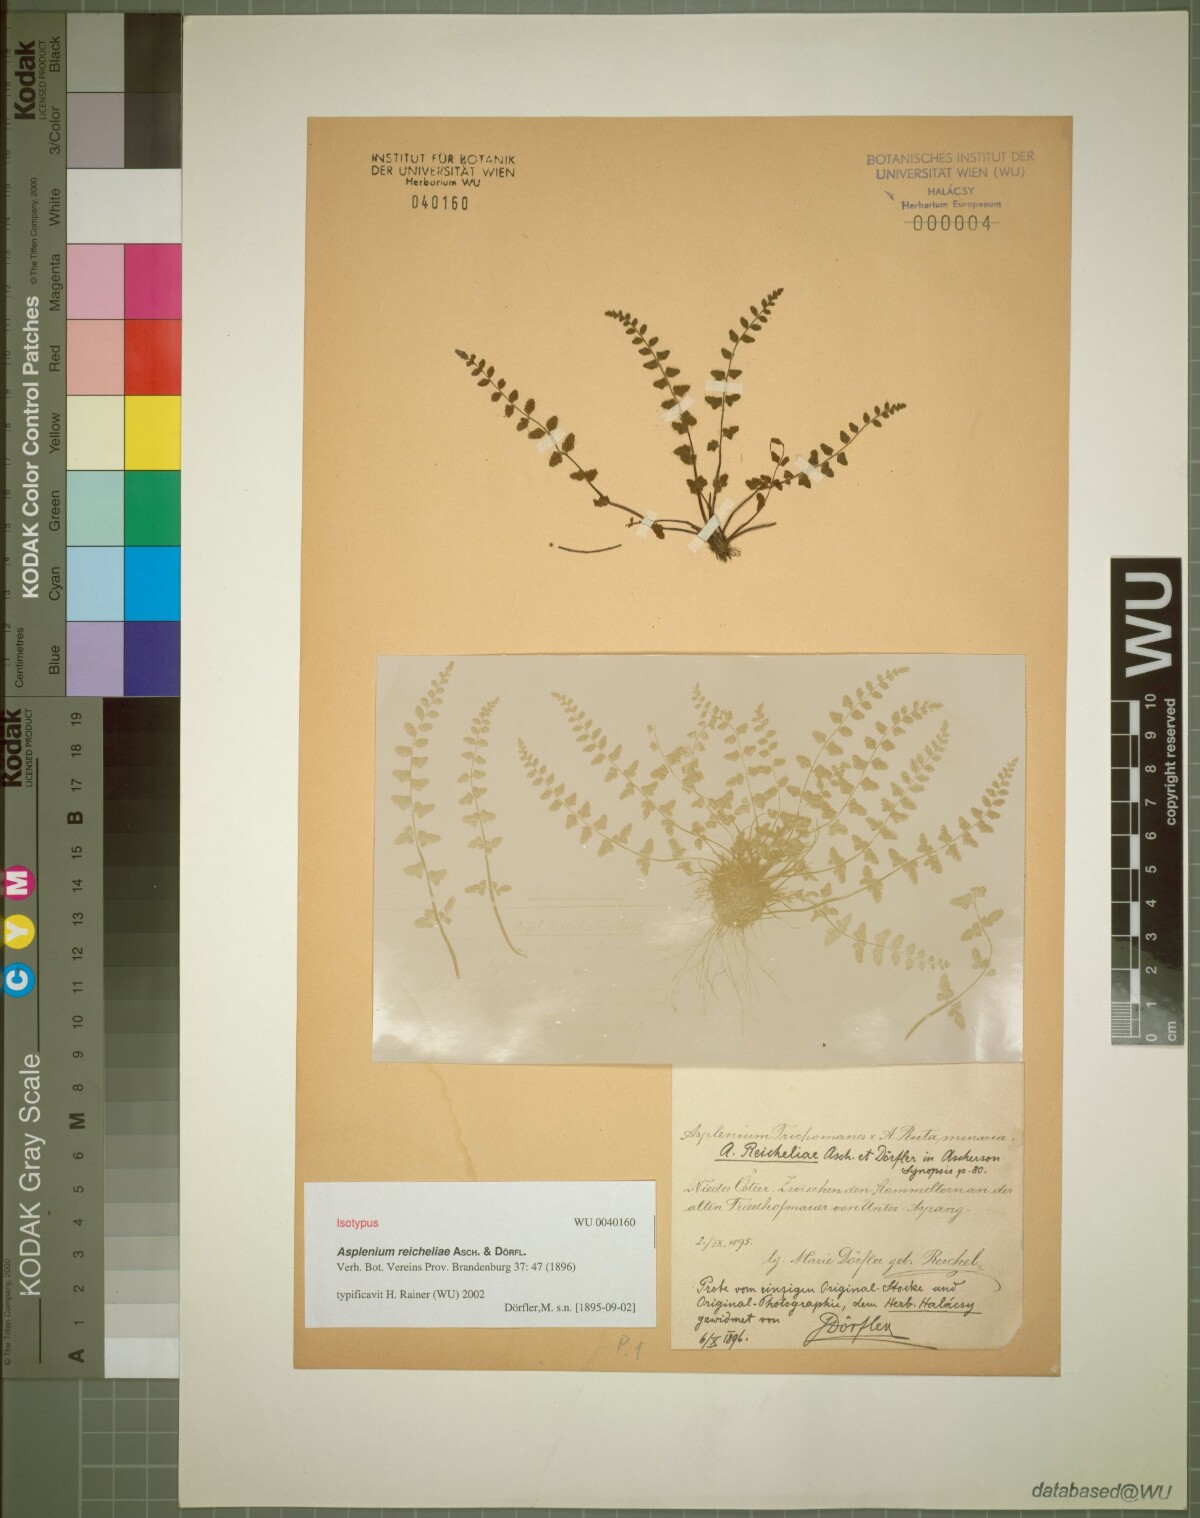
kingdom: Plantae
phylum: Tracheophyta
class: Polypodiopsida
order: Polypodiales
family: Aspleniaceae
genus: Asplenium
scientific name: Asplenium heufleri
